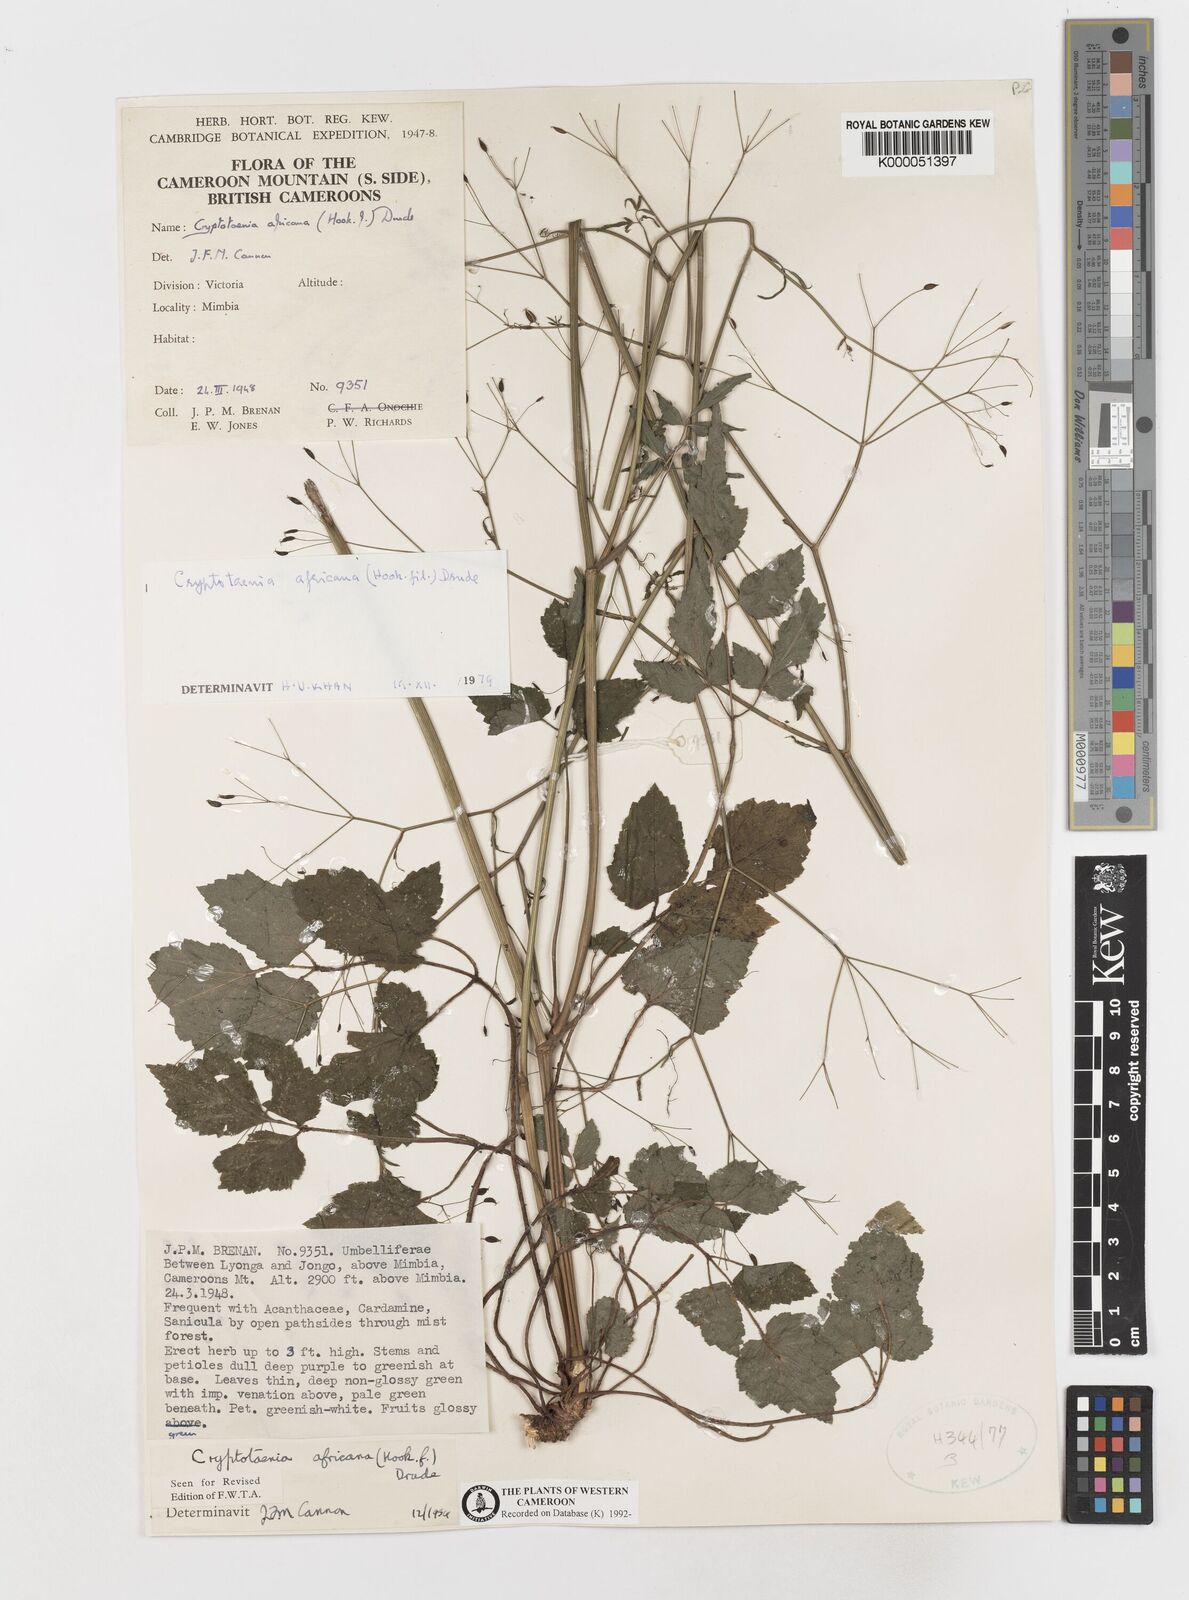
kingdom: Plantae
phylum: Tracheophyta
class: Magnoliopsida
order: Apiales
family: Apiaceae
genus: Cryptotaenia
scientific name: Cryptotaenia africana
